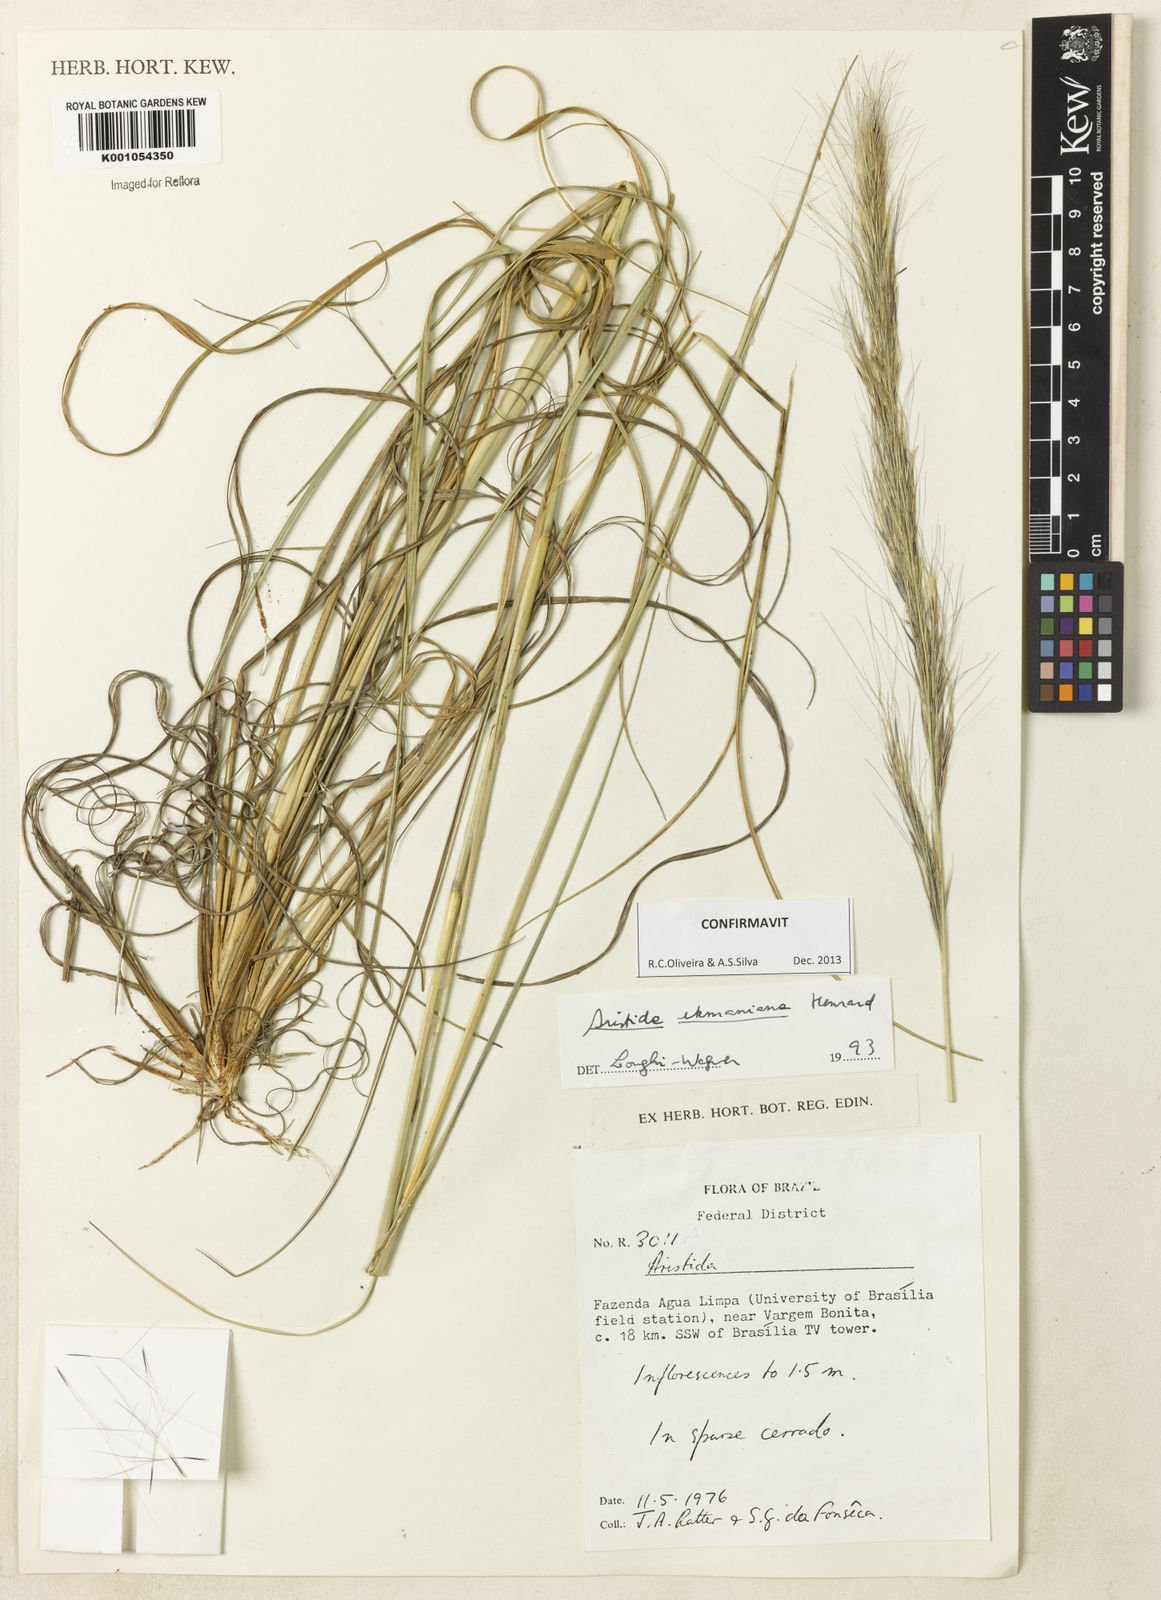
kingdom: Plantae
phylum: Tracheophyta
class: Liliopsida
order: Poales
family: Poaceae
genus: Aristida
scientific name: Aristida ekmaniana
